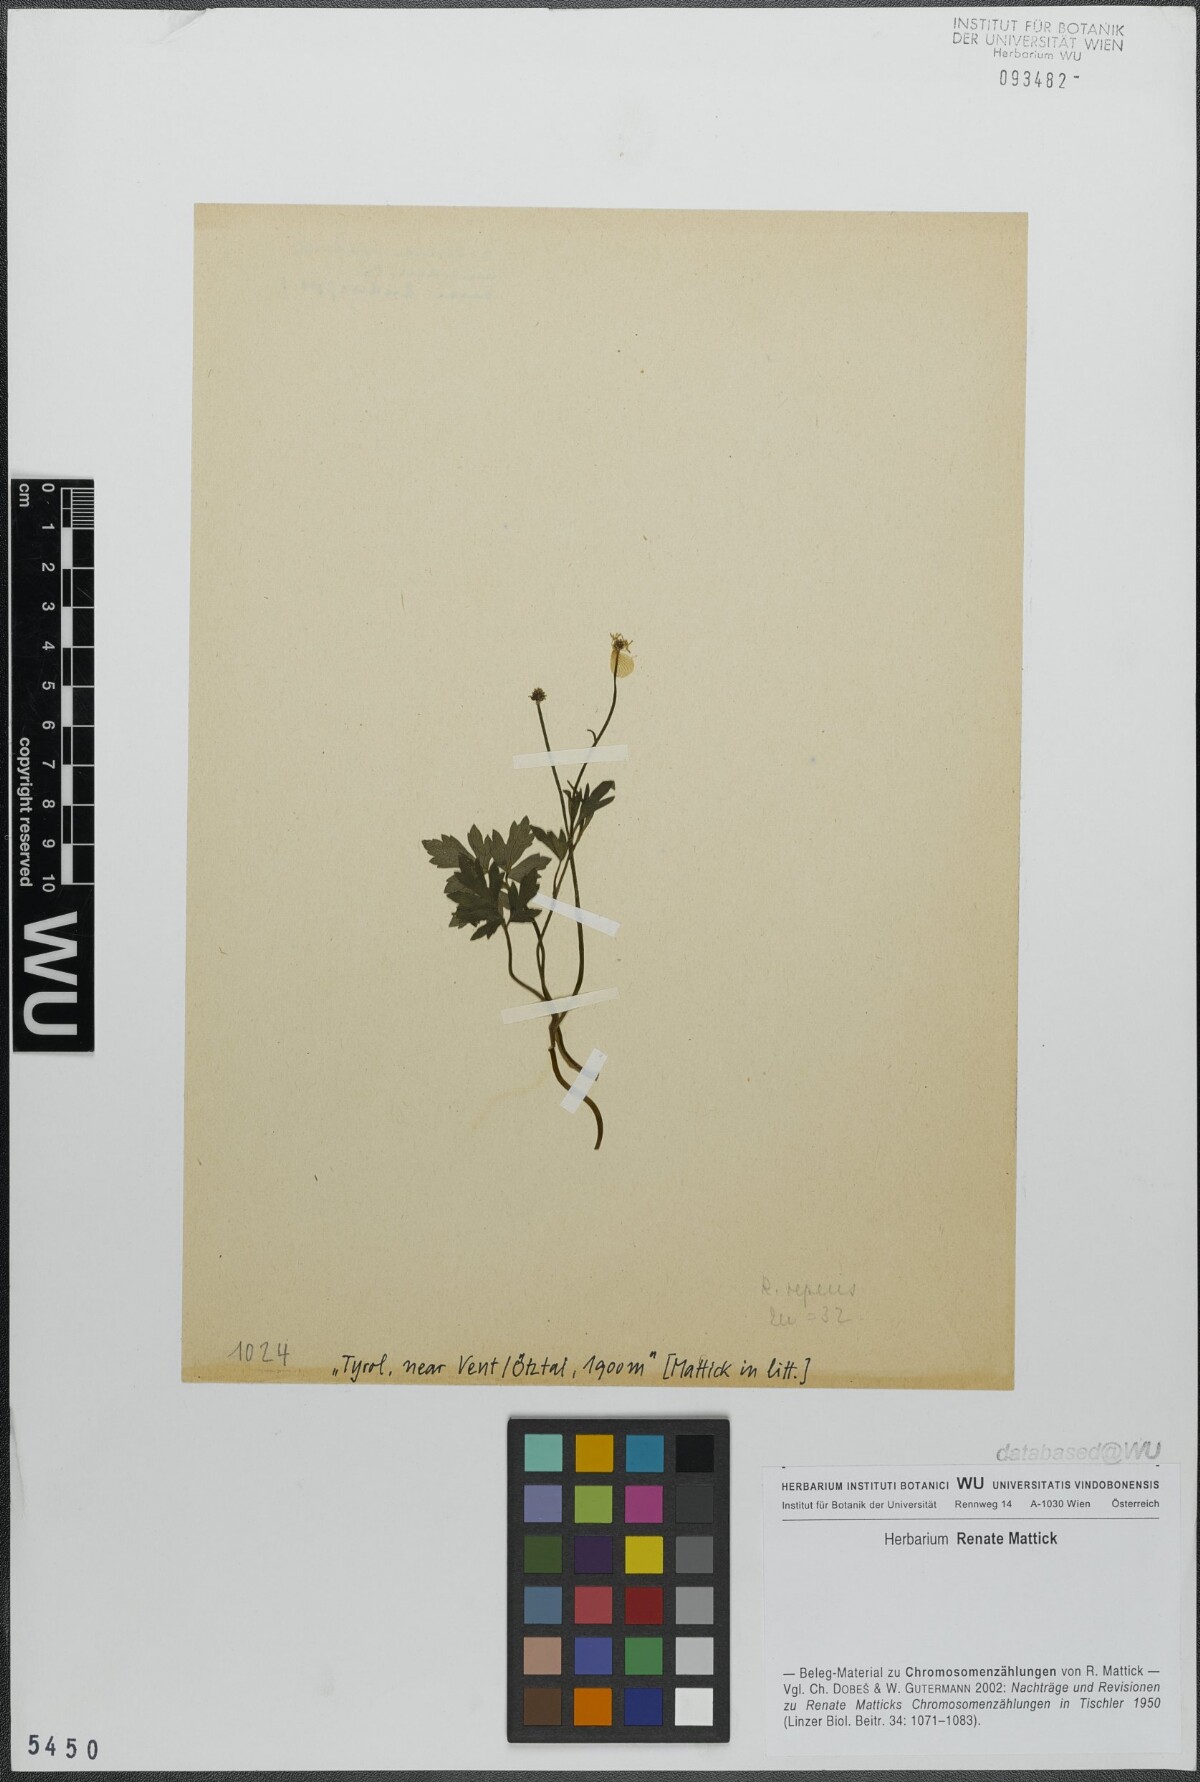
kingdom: Plantae
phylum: Tracheophyta
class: Magnoliopsida
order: Ranunculales
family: Ranunculaceae
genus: Ranunculus
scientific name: Ranunculus repens
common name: Creeping buttercup
